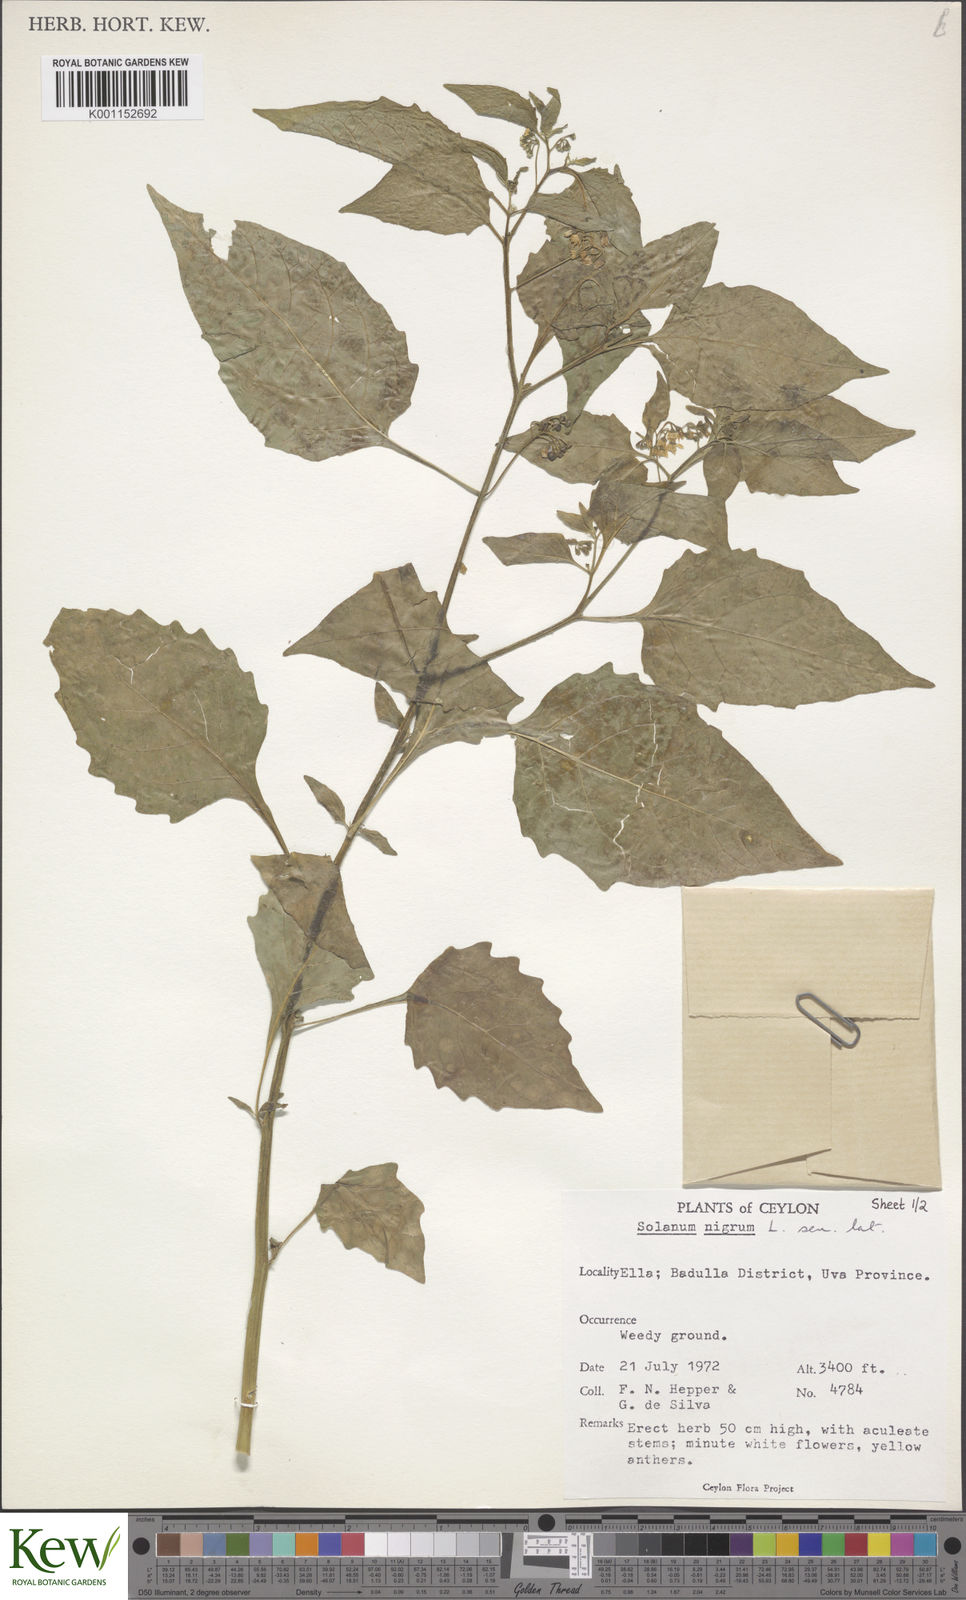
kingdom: Plantae
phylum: Tracheophyta
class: Magnoliopsida
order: Solanales
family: Solanaceae
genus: Solanum
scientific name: Solanum nigrum
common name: Black nightshade
